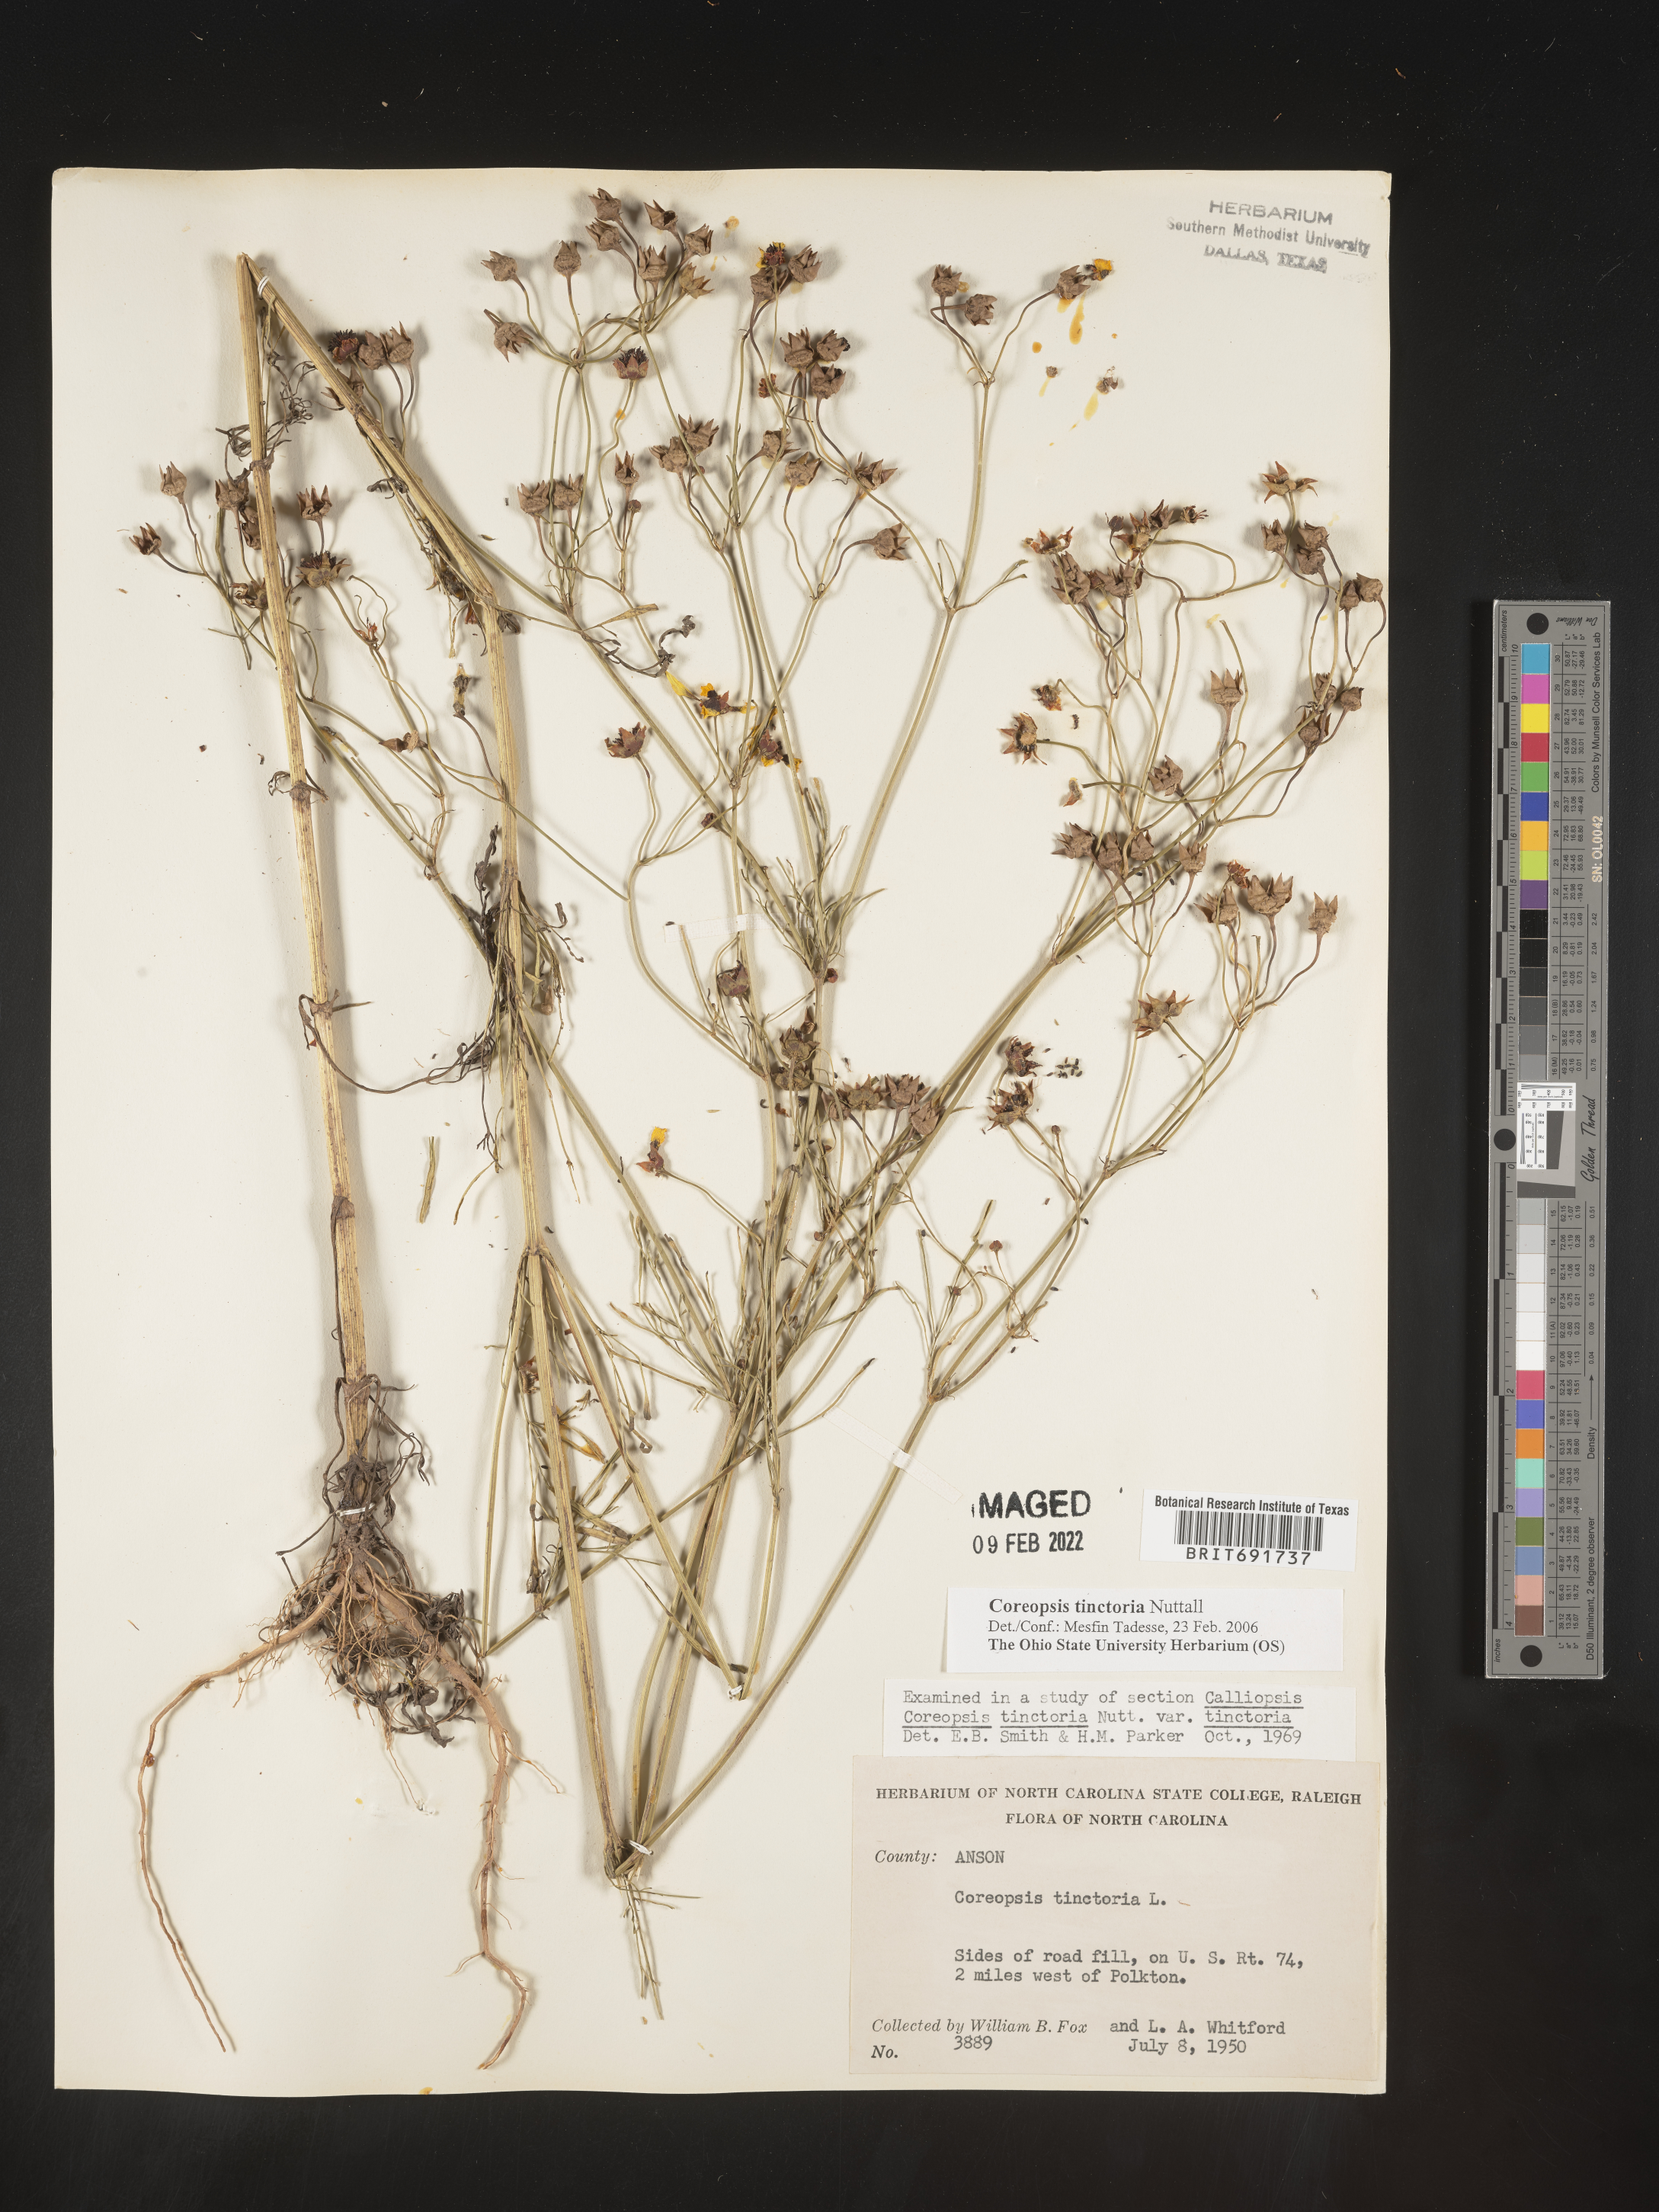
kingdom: Plantae
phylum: Tracheophyta
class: Magnoliopsida
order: Asterales
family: Asteraceae
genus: Coreopsis
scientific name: Coreopsis tinctoria
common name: Garden tickseed
